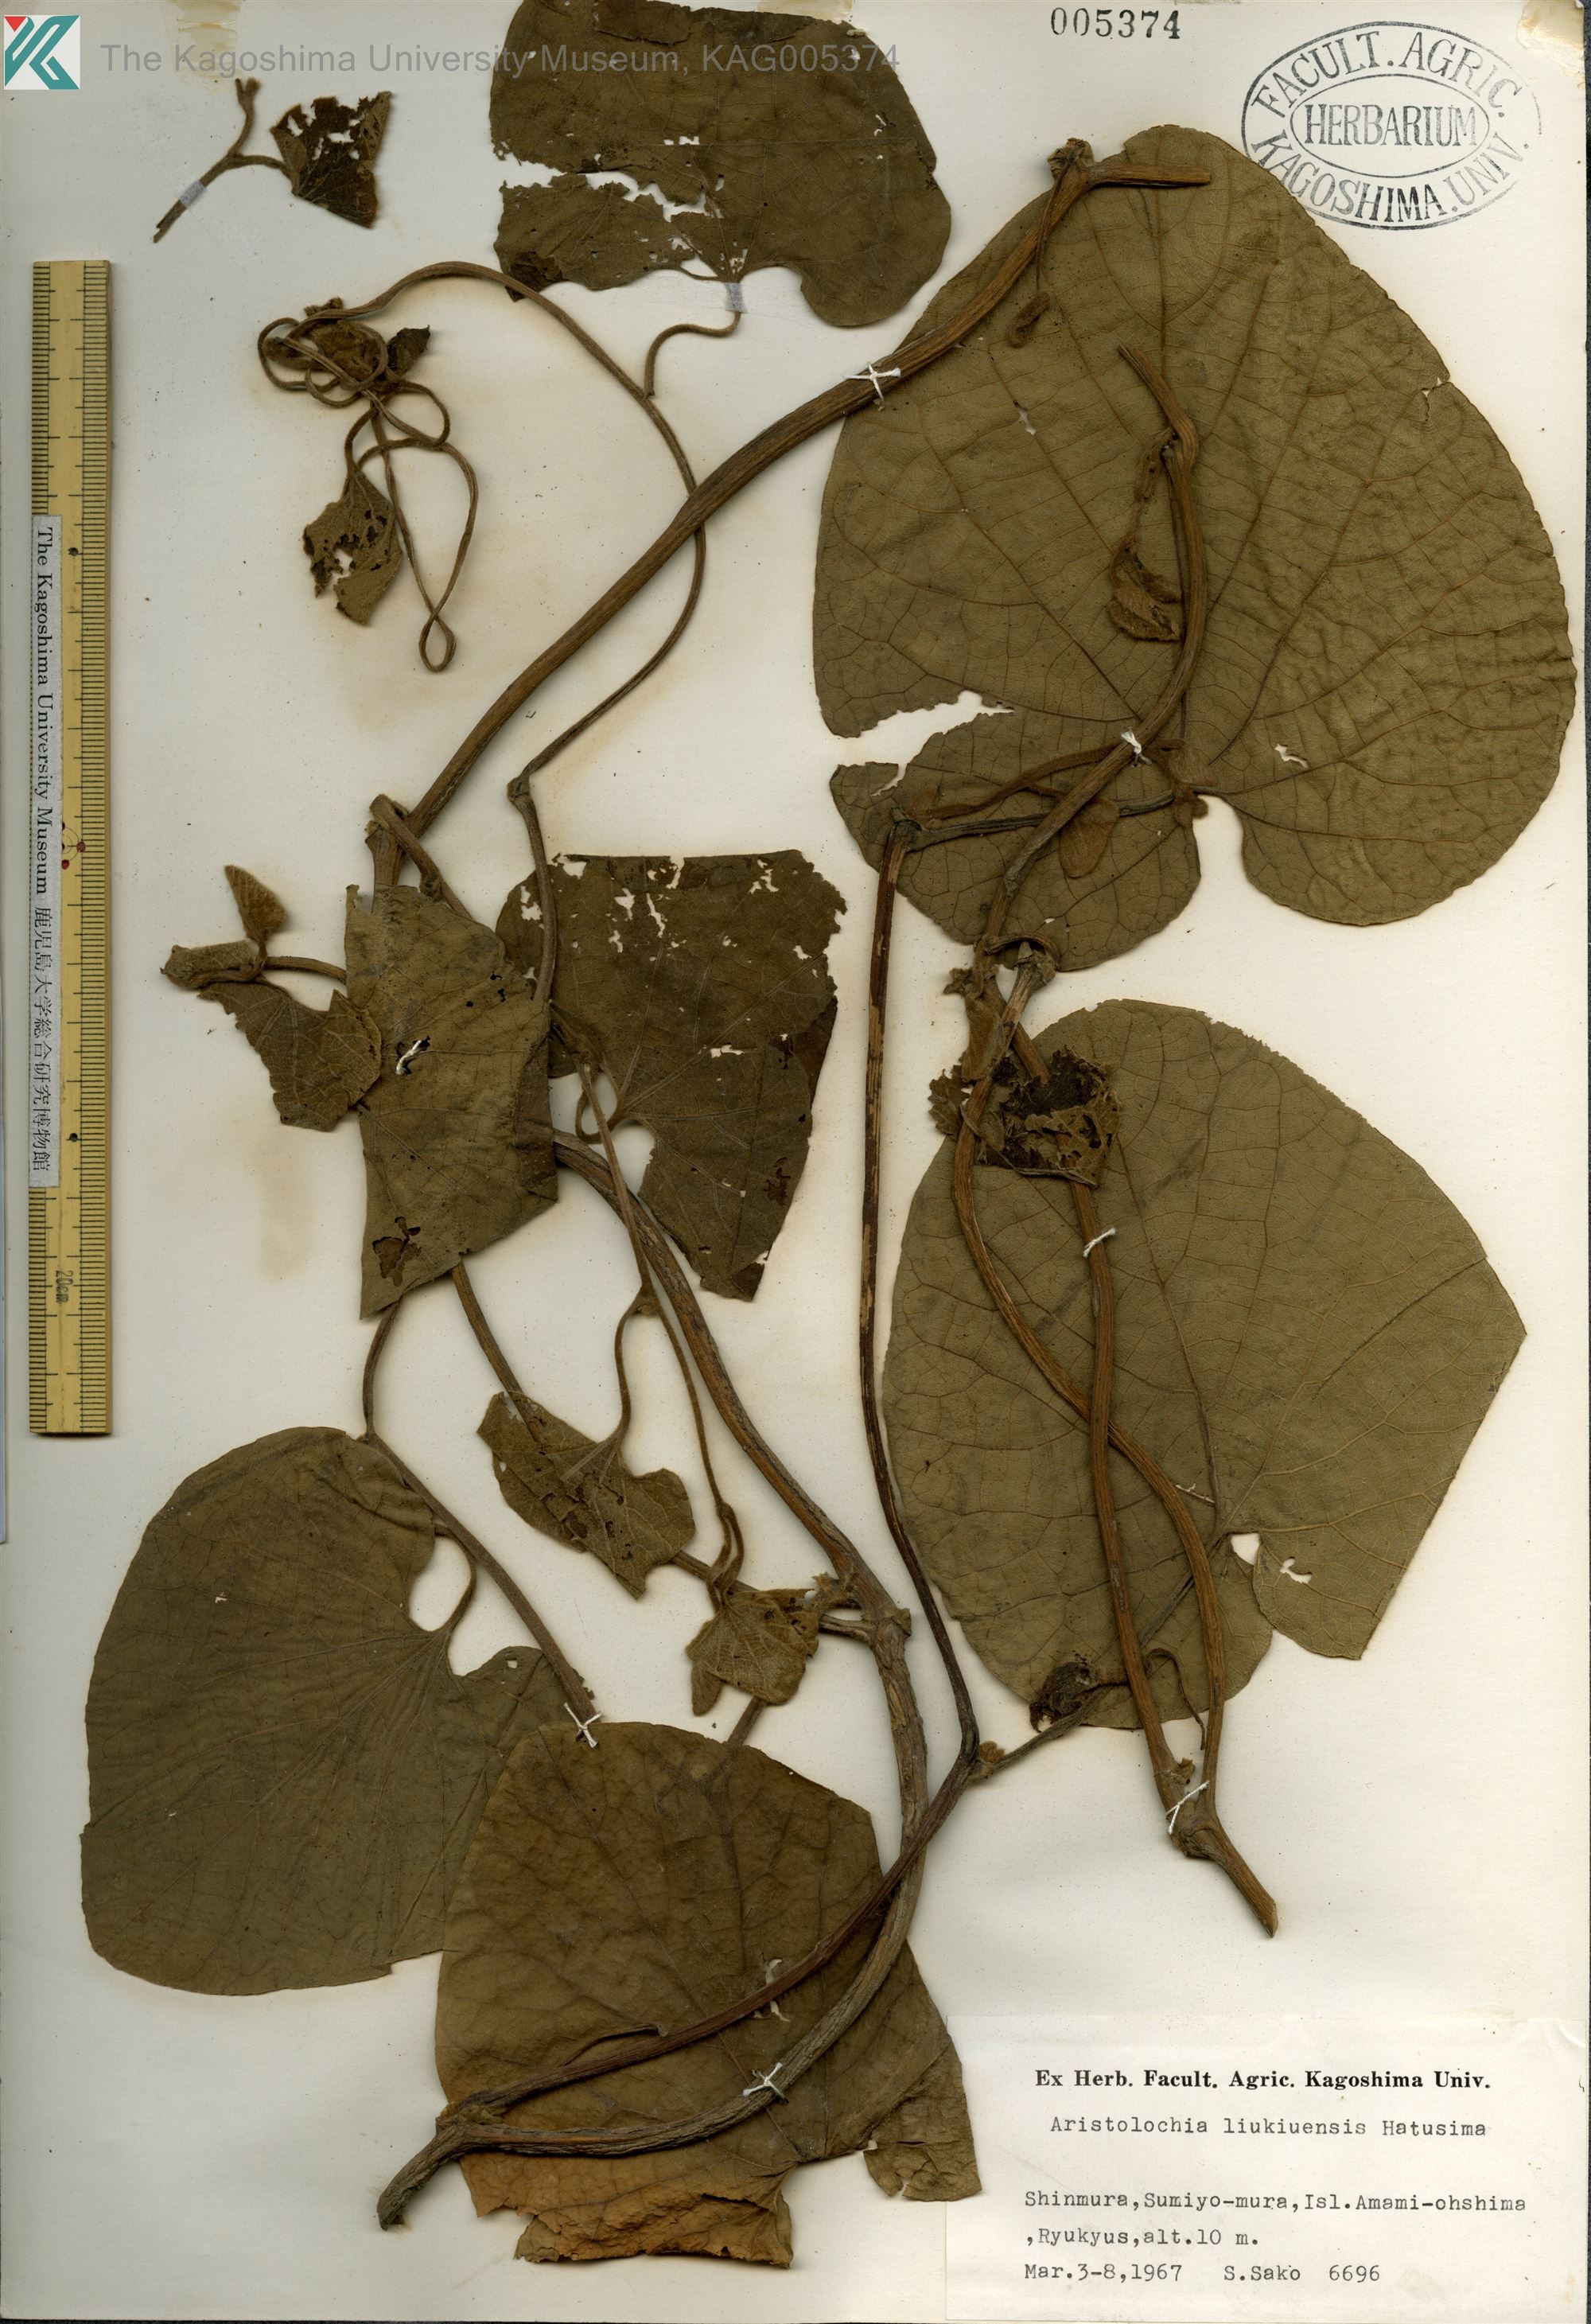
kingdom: Plantae
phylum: Tracheophyta
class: Magnoliopsida
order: Piperales
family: Aristolochiaceae
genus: Isotrema
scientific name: Isotrema liukiuense
